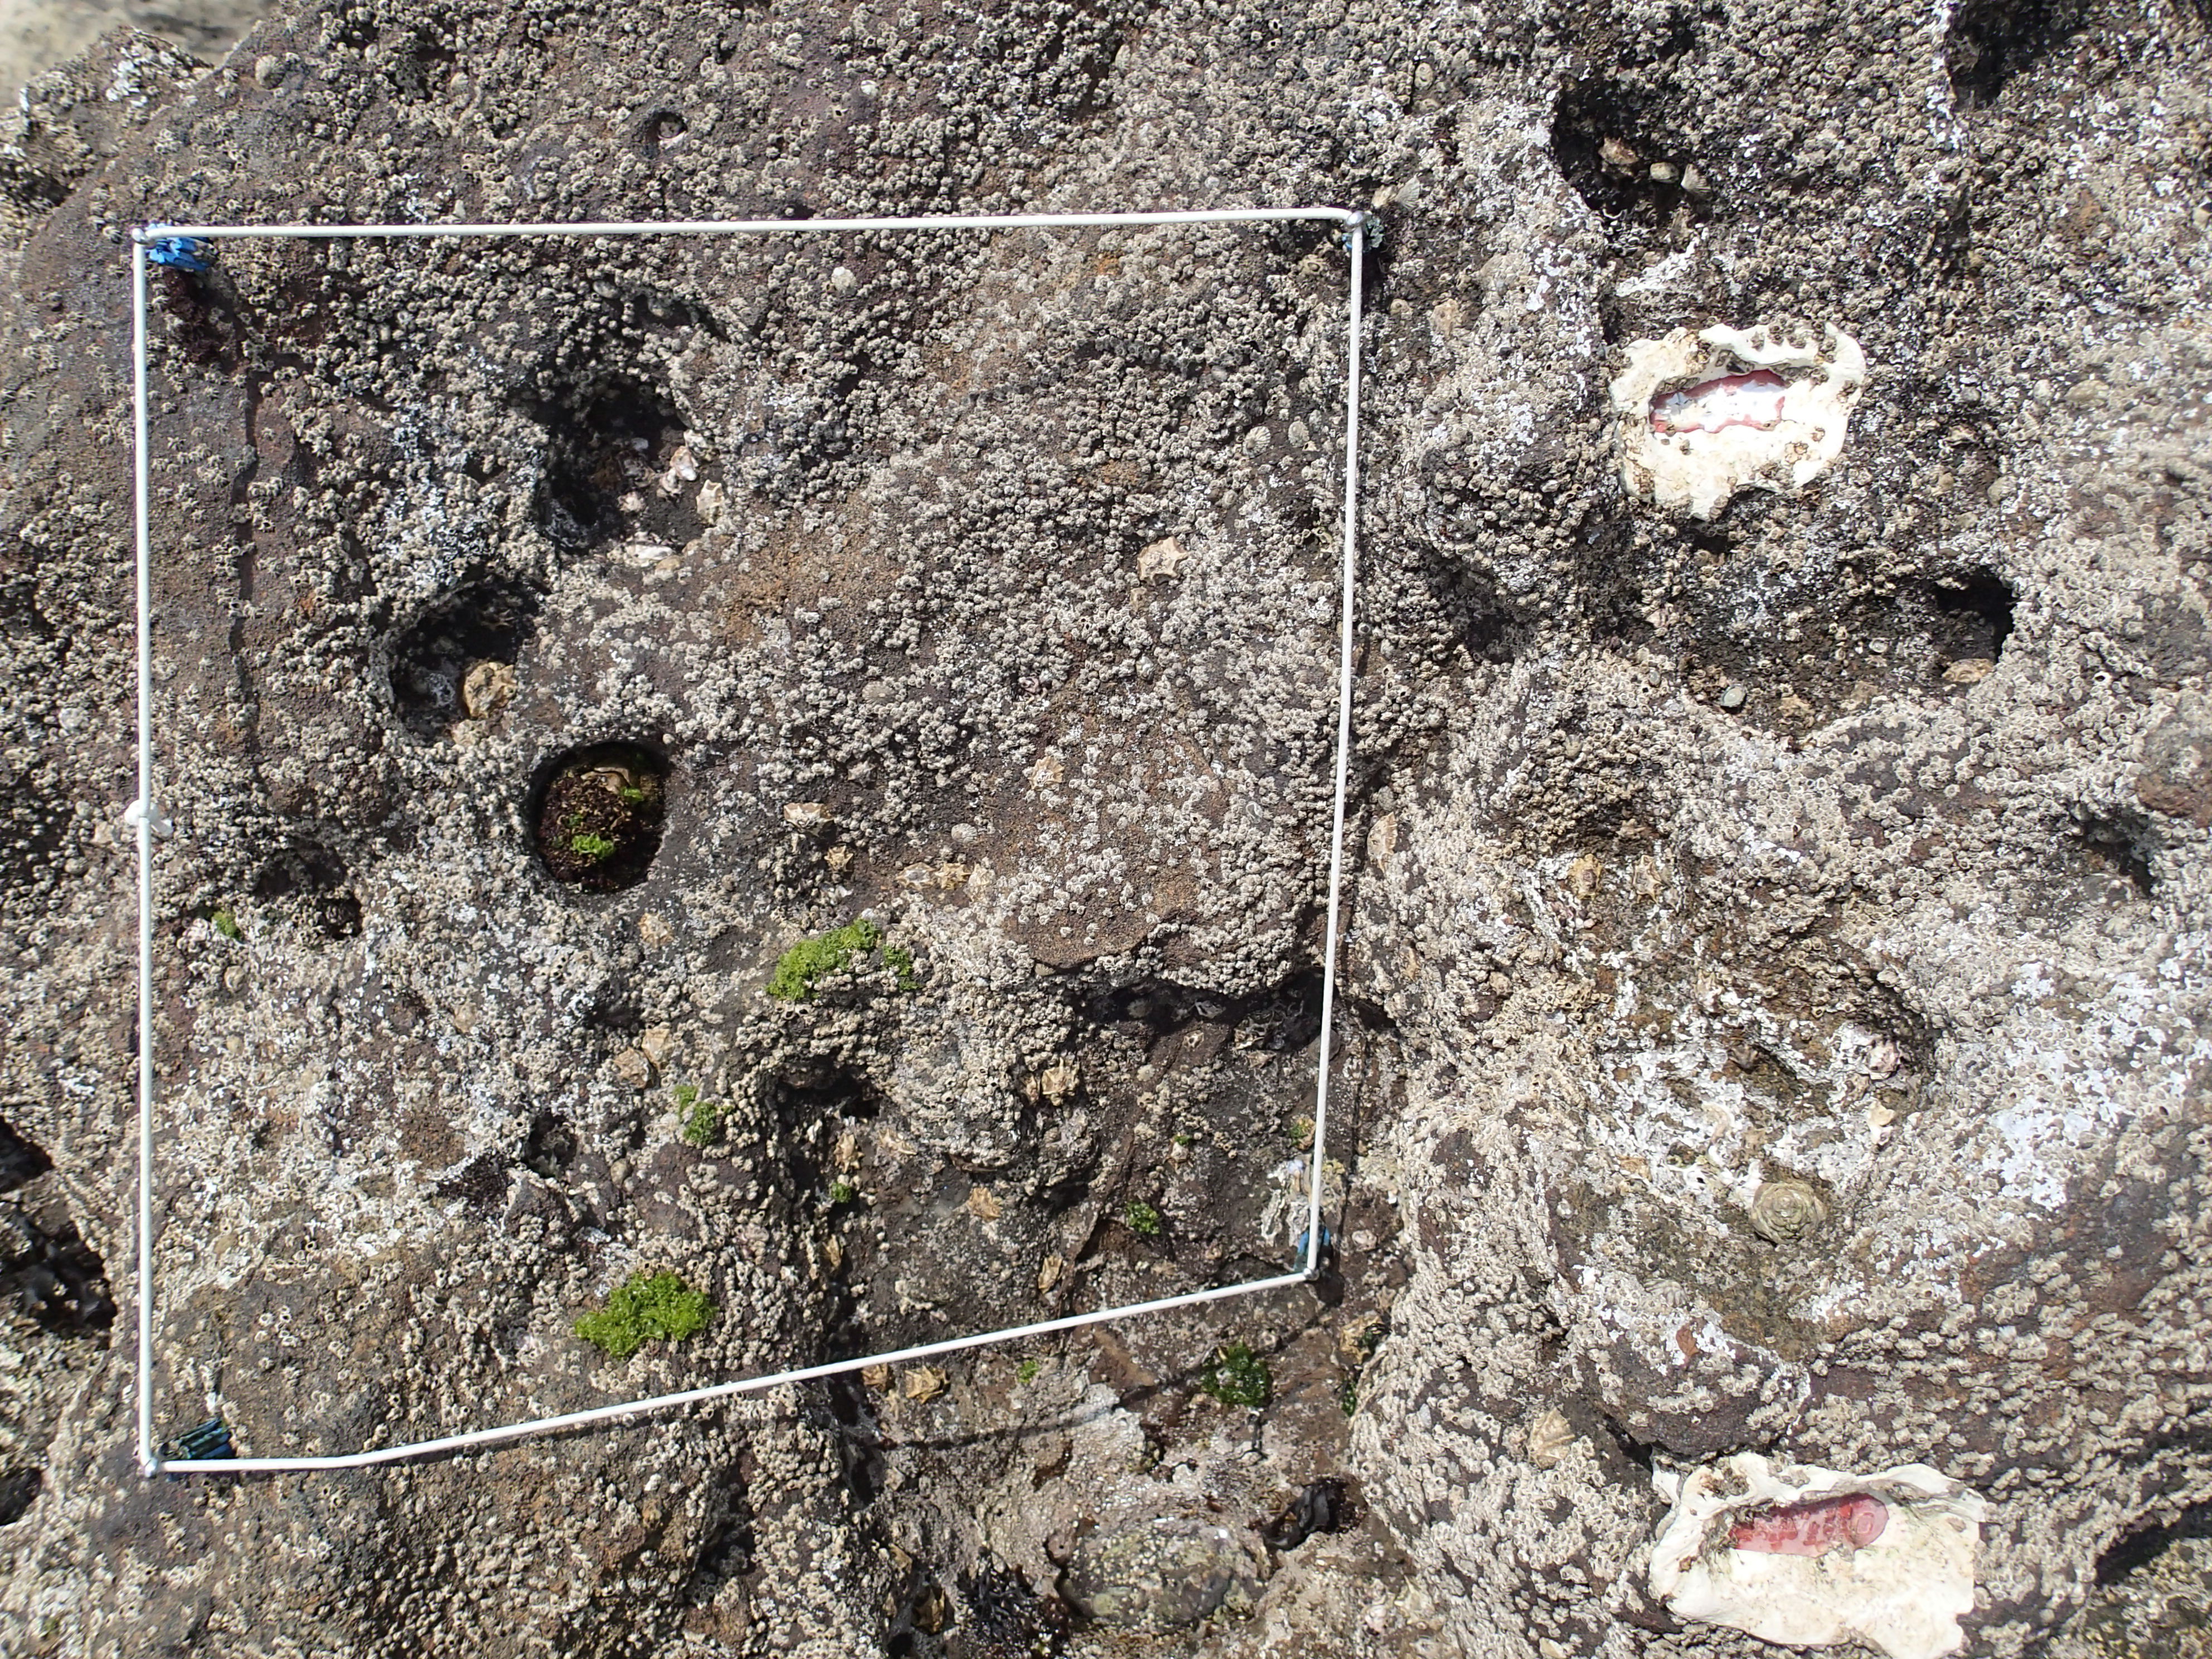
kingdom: Animalia
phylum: Arthropoda
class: Maxillopoda
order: Sessilia
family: Chthamalidae
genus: Chthamalus
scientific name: Chthamalus challengeri
